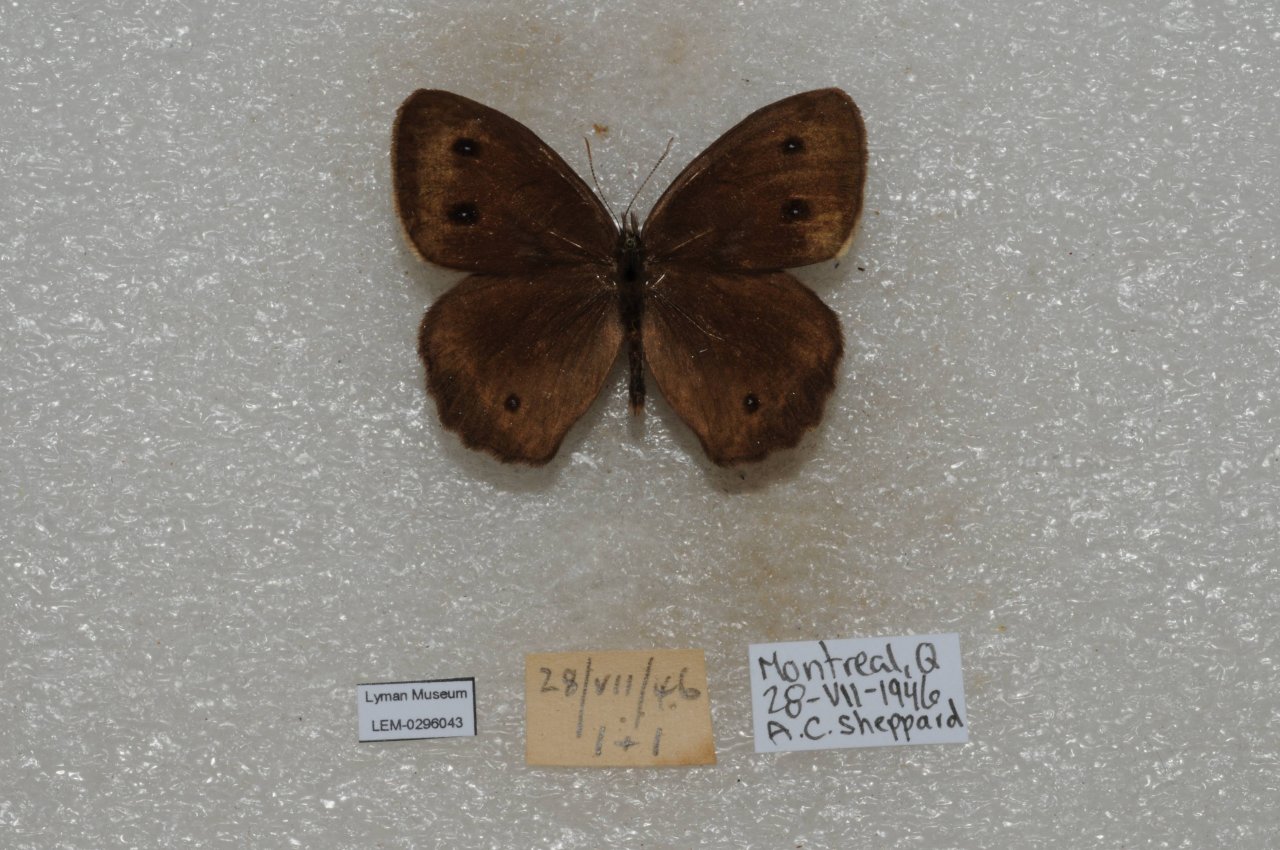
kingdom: Animalia
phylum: Arthropoda
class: Insecta
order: Lepidoptera
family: Nymphalidae
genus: Cercyonis
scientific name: Cercyonis pegala
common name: Common Wood-Nymph
